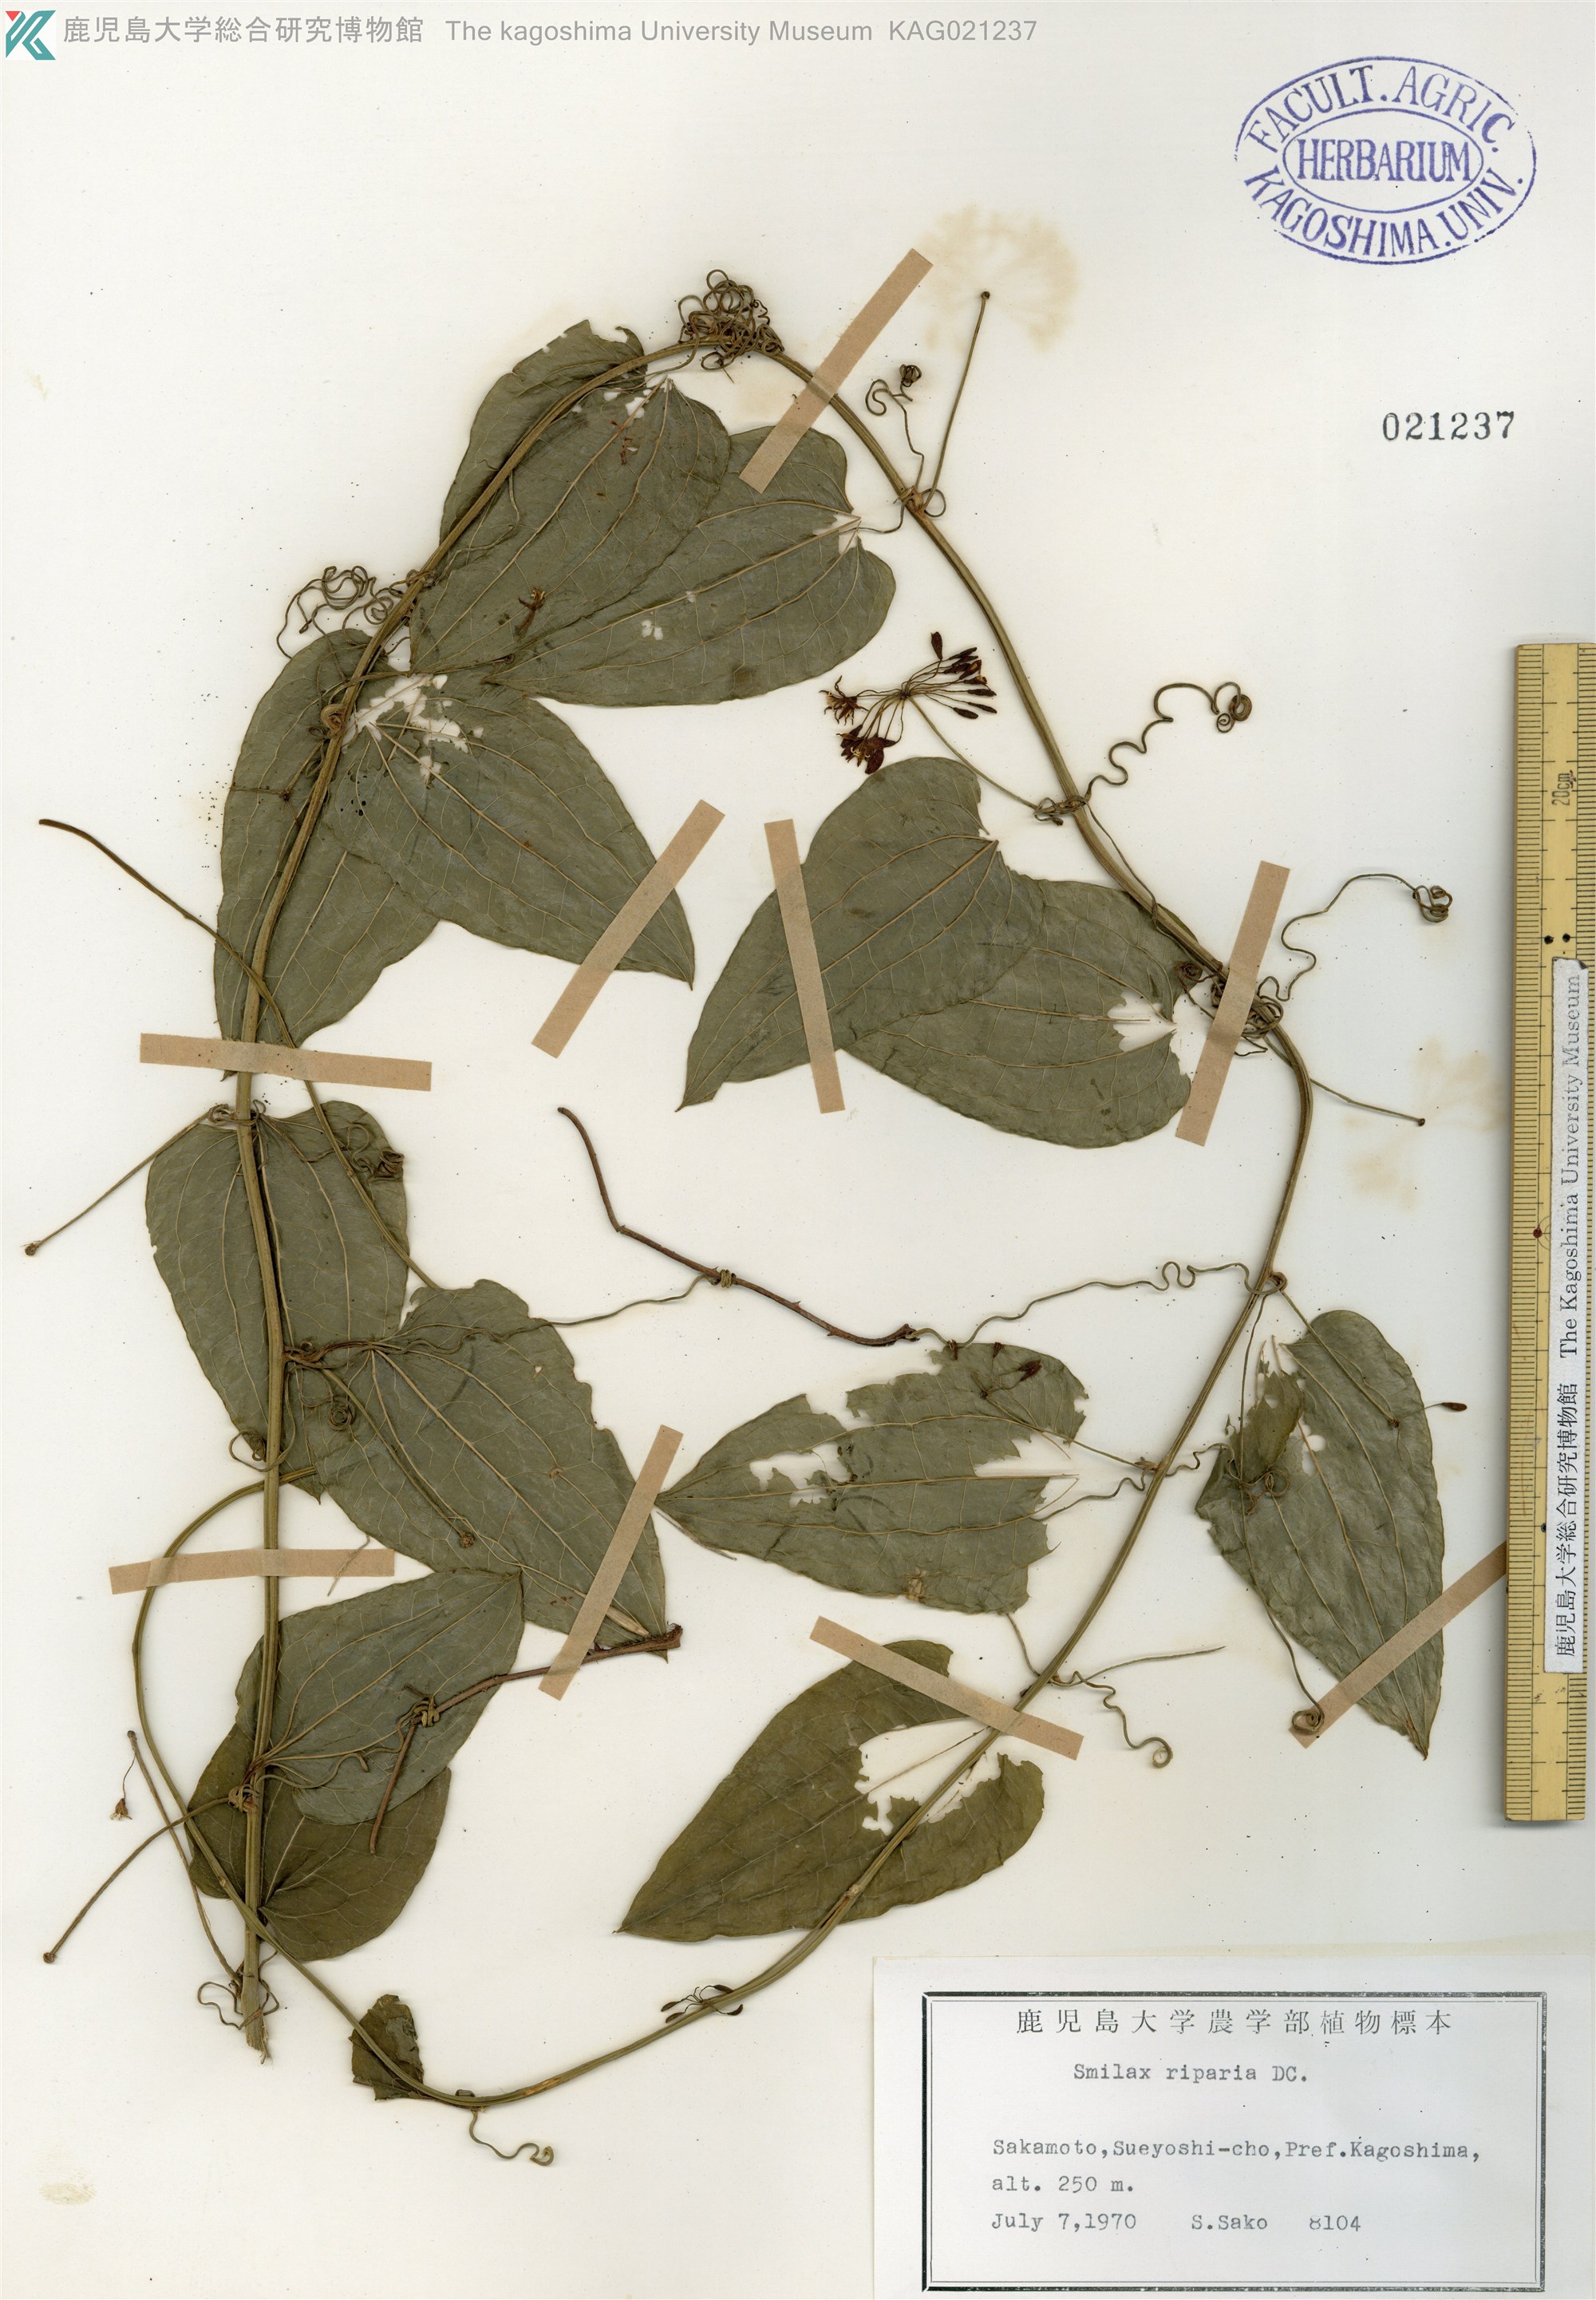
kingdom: Plantae
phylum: Tracheophyta
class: Liliopsida
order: Liliales
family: Smilacaceae
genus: Smilax
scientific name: Smilax riparia
